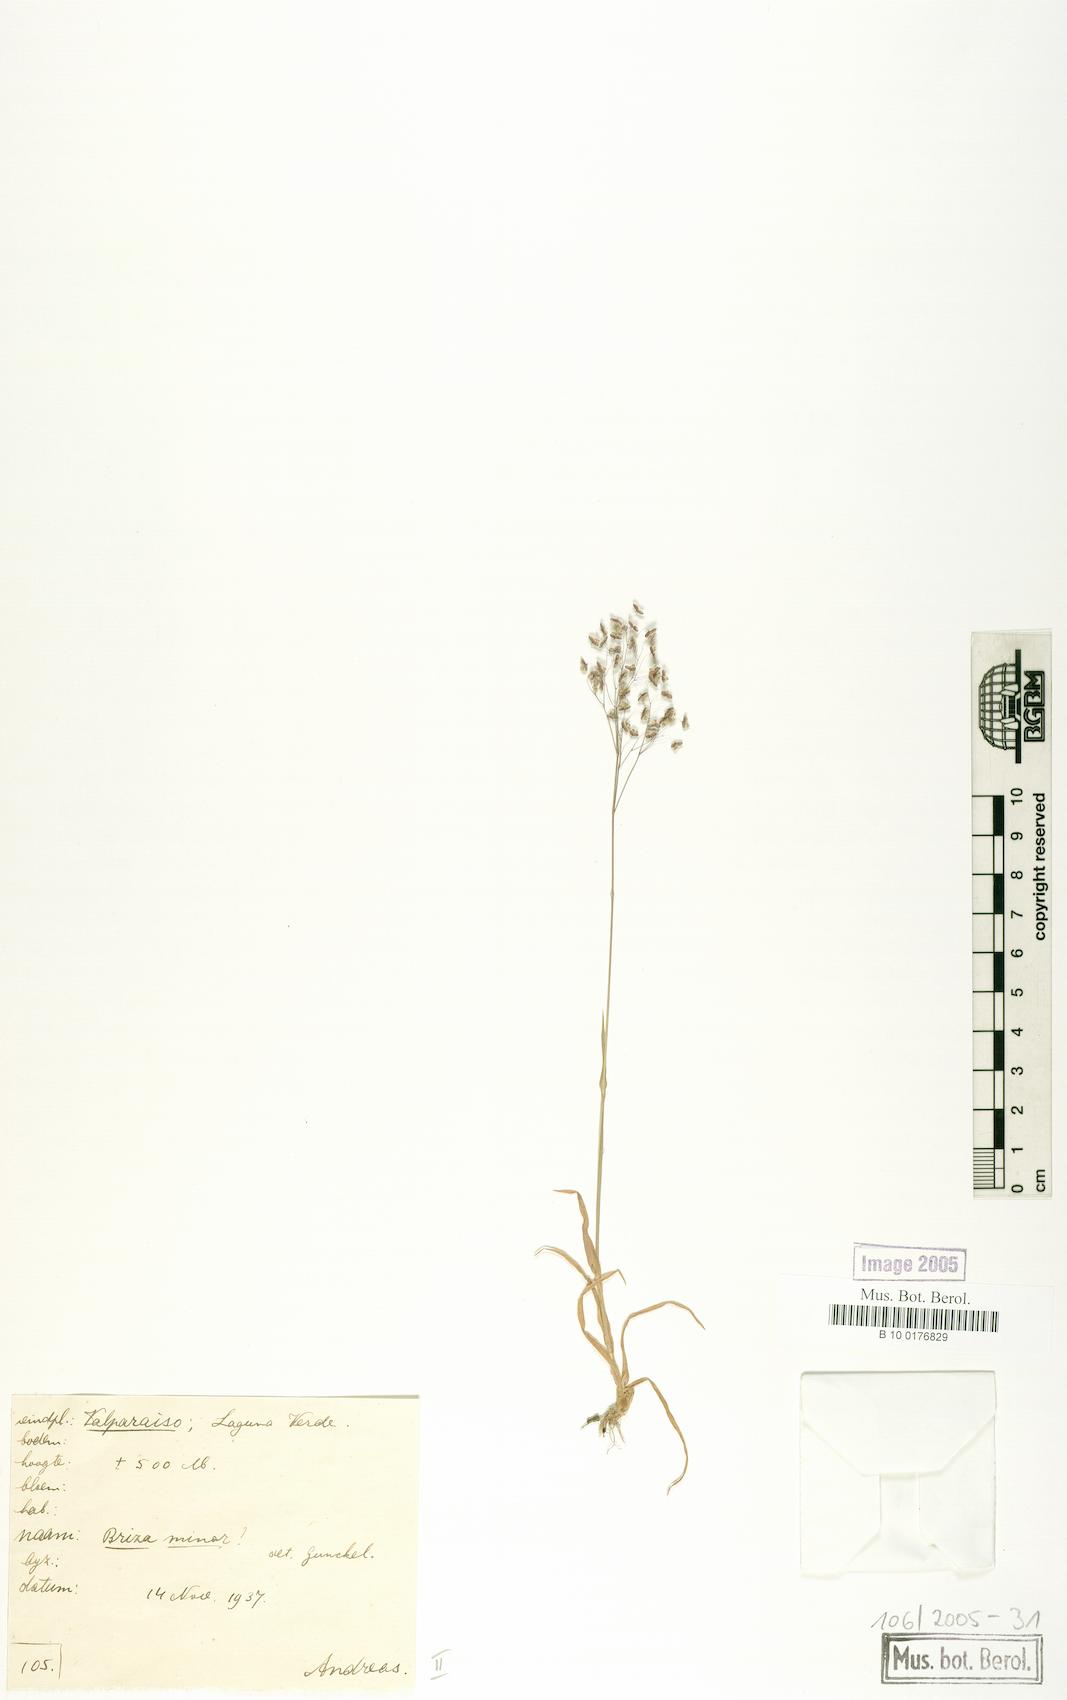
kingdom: Plantae
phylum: Tracheophyta
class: Liliopsida
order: Poales
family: Poaceae
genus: Briza
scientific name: Briza minor
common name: Lesser quaking-grass
